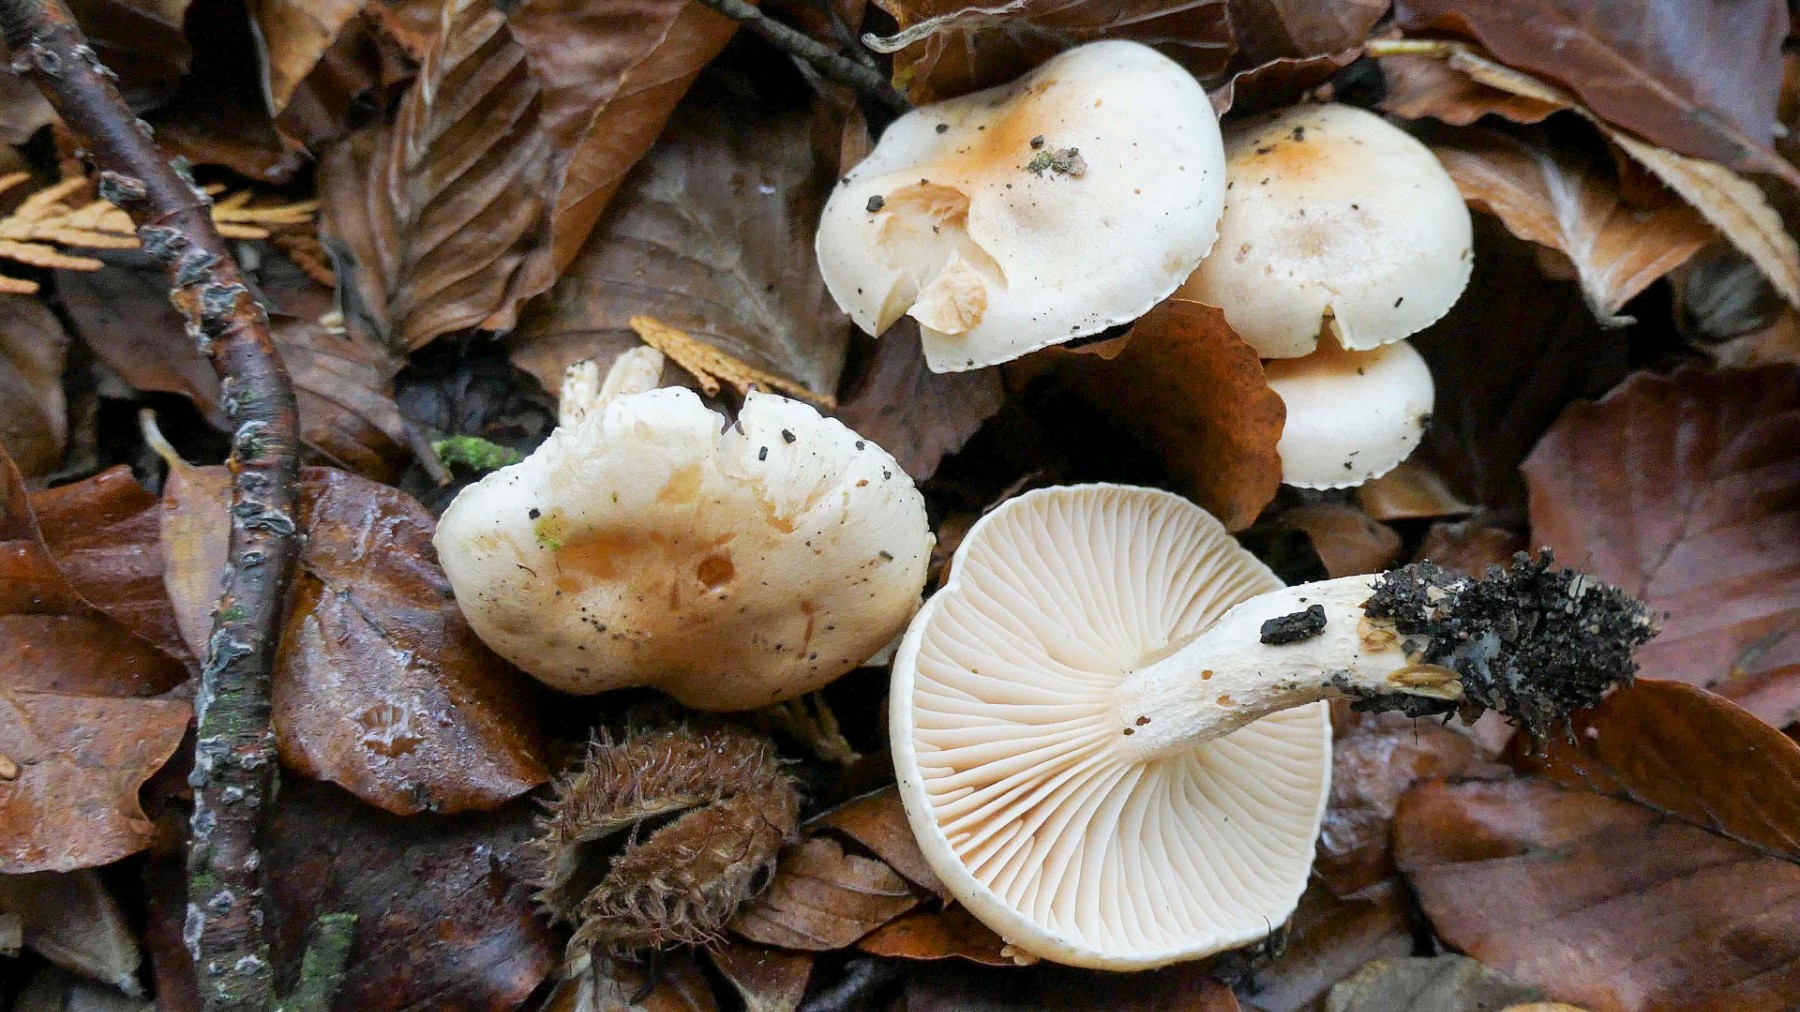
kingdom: Fungi
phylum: Basidiomycota
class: Agaricomycetes
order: Agaricales
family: Hygrophoraceae
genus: Hygrophorus
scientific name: Hygrophorus unicolor
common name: orangeøjet sneglehat
